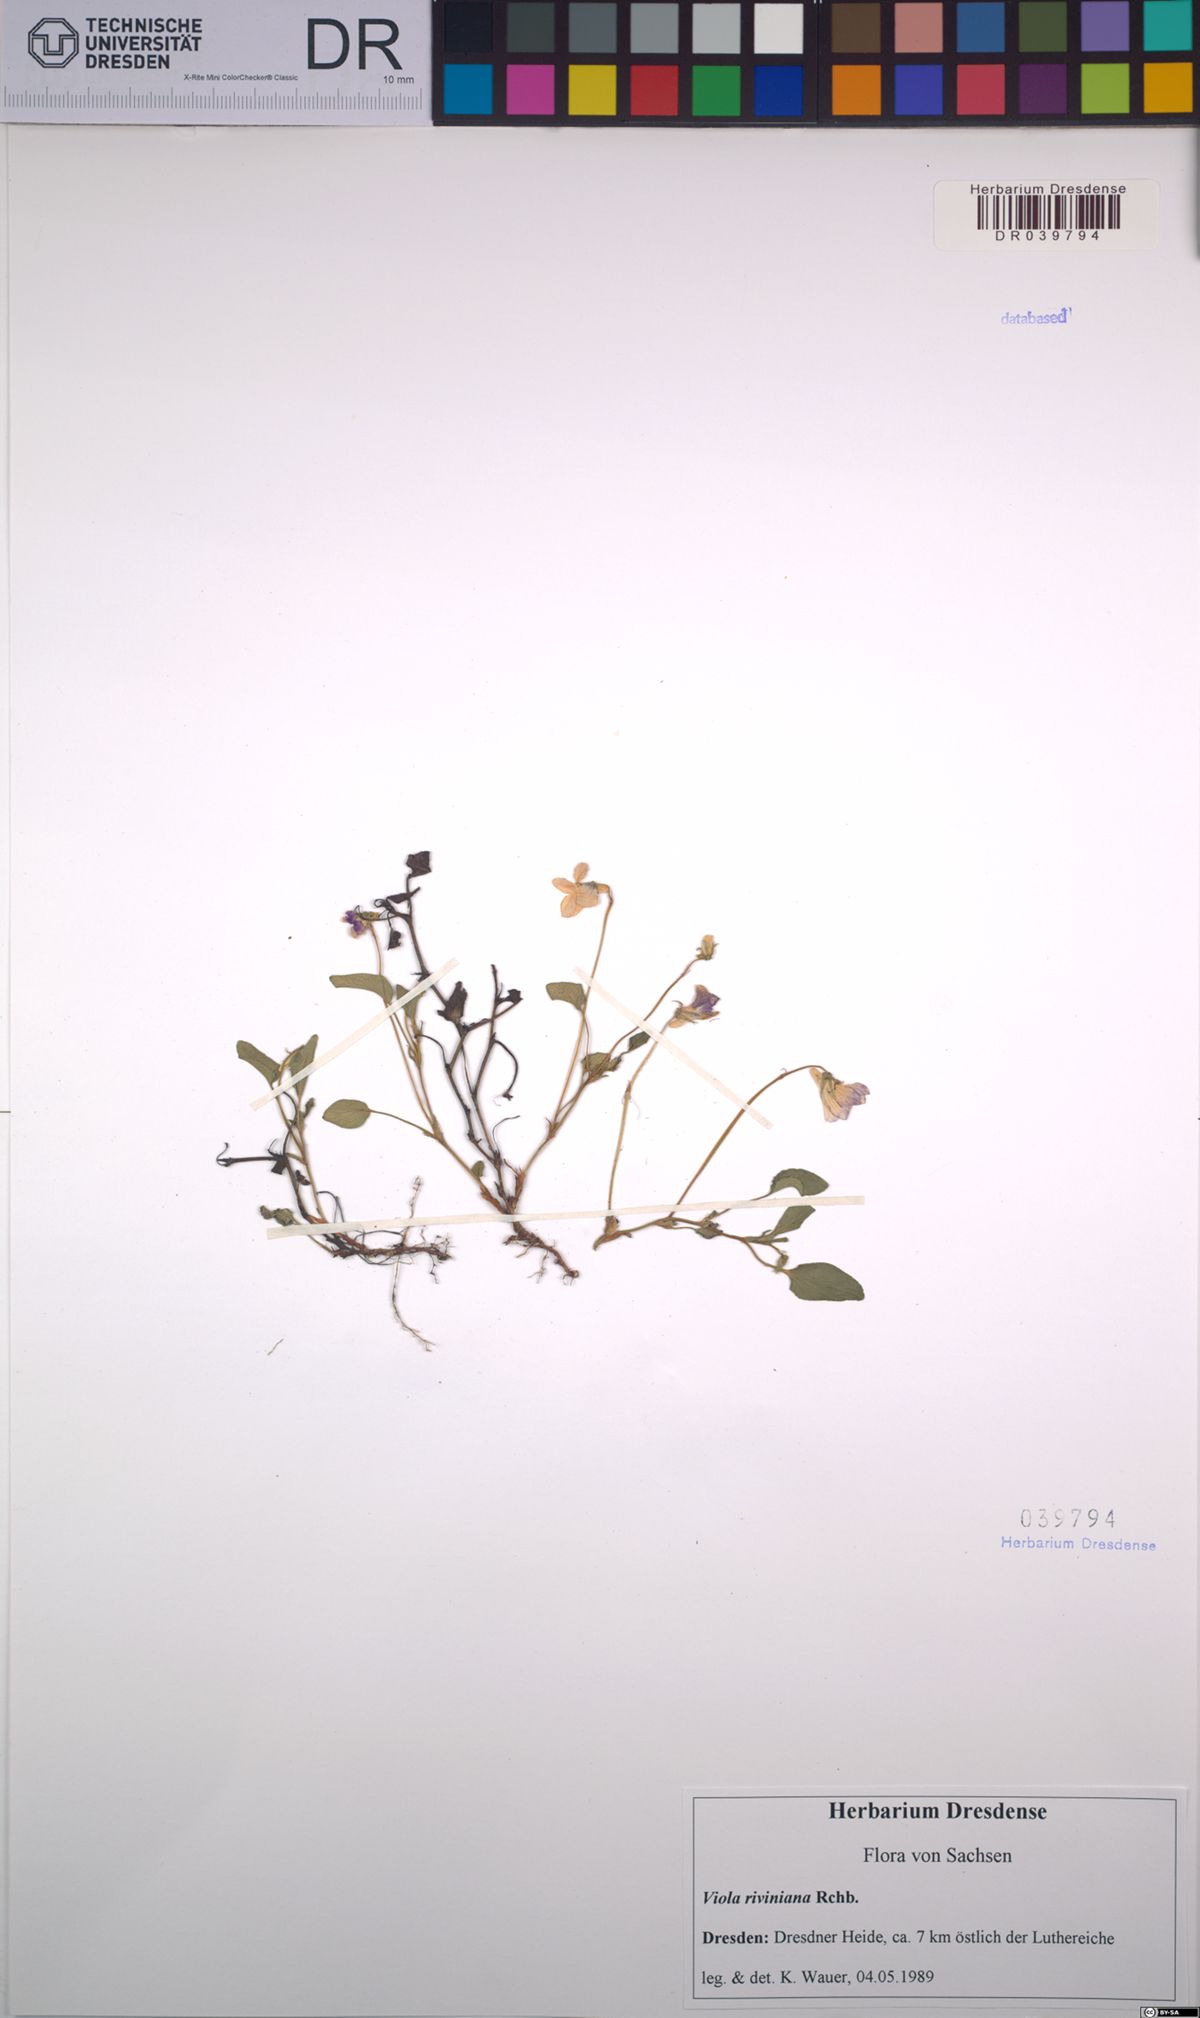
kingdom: Plantae
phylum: Tracheophyta
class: Magnoliopsida
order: Malpighiales
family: Violaceae
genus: Viola
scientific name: Viola riviniana
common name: Common dog-violet
